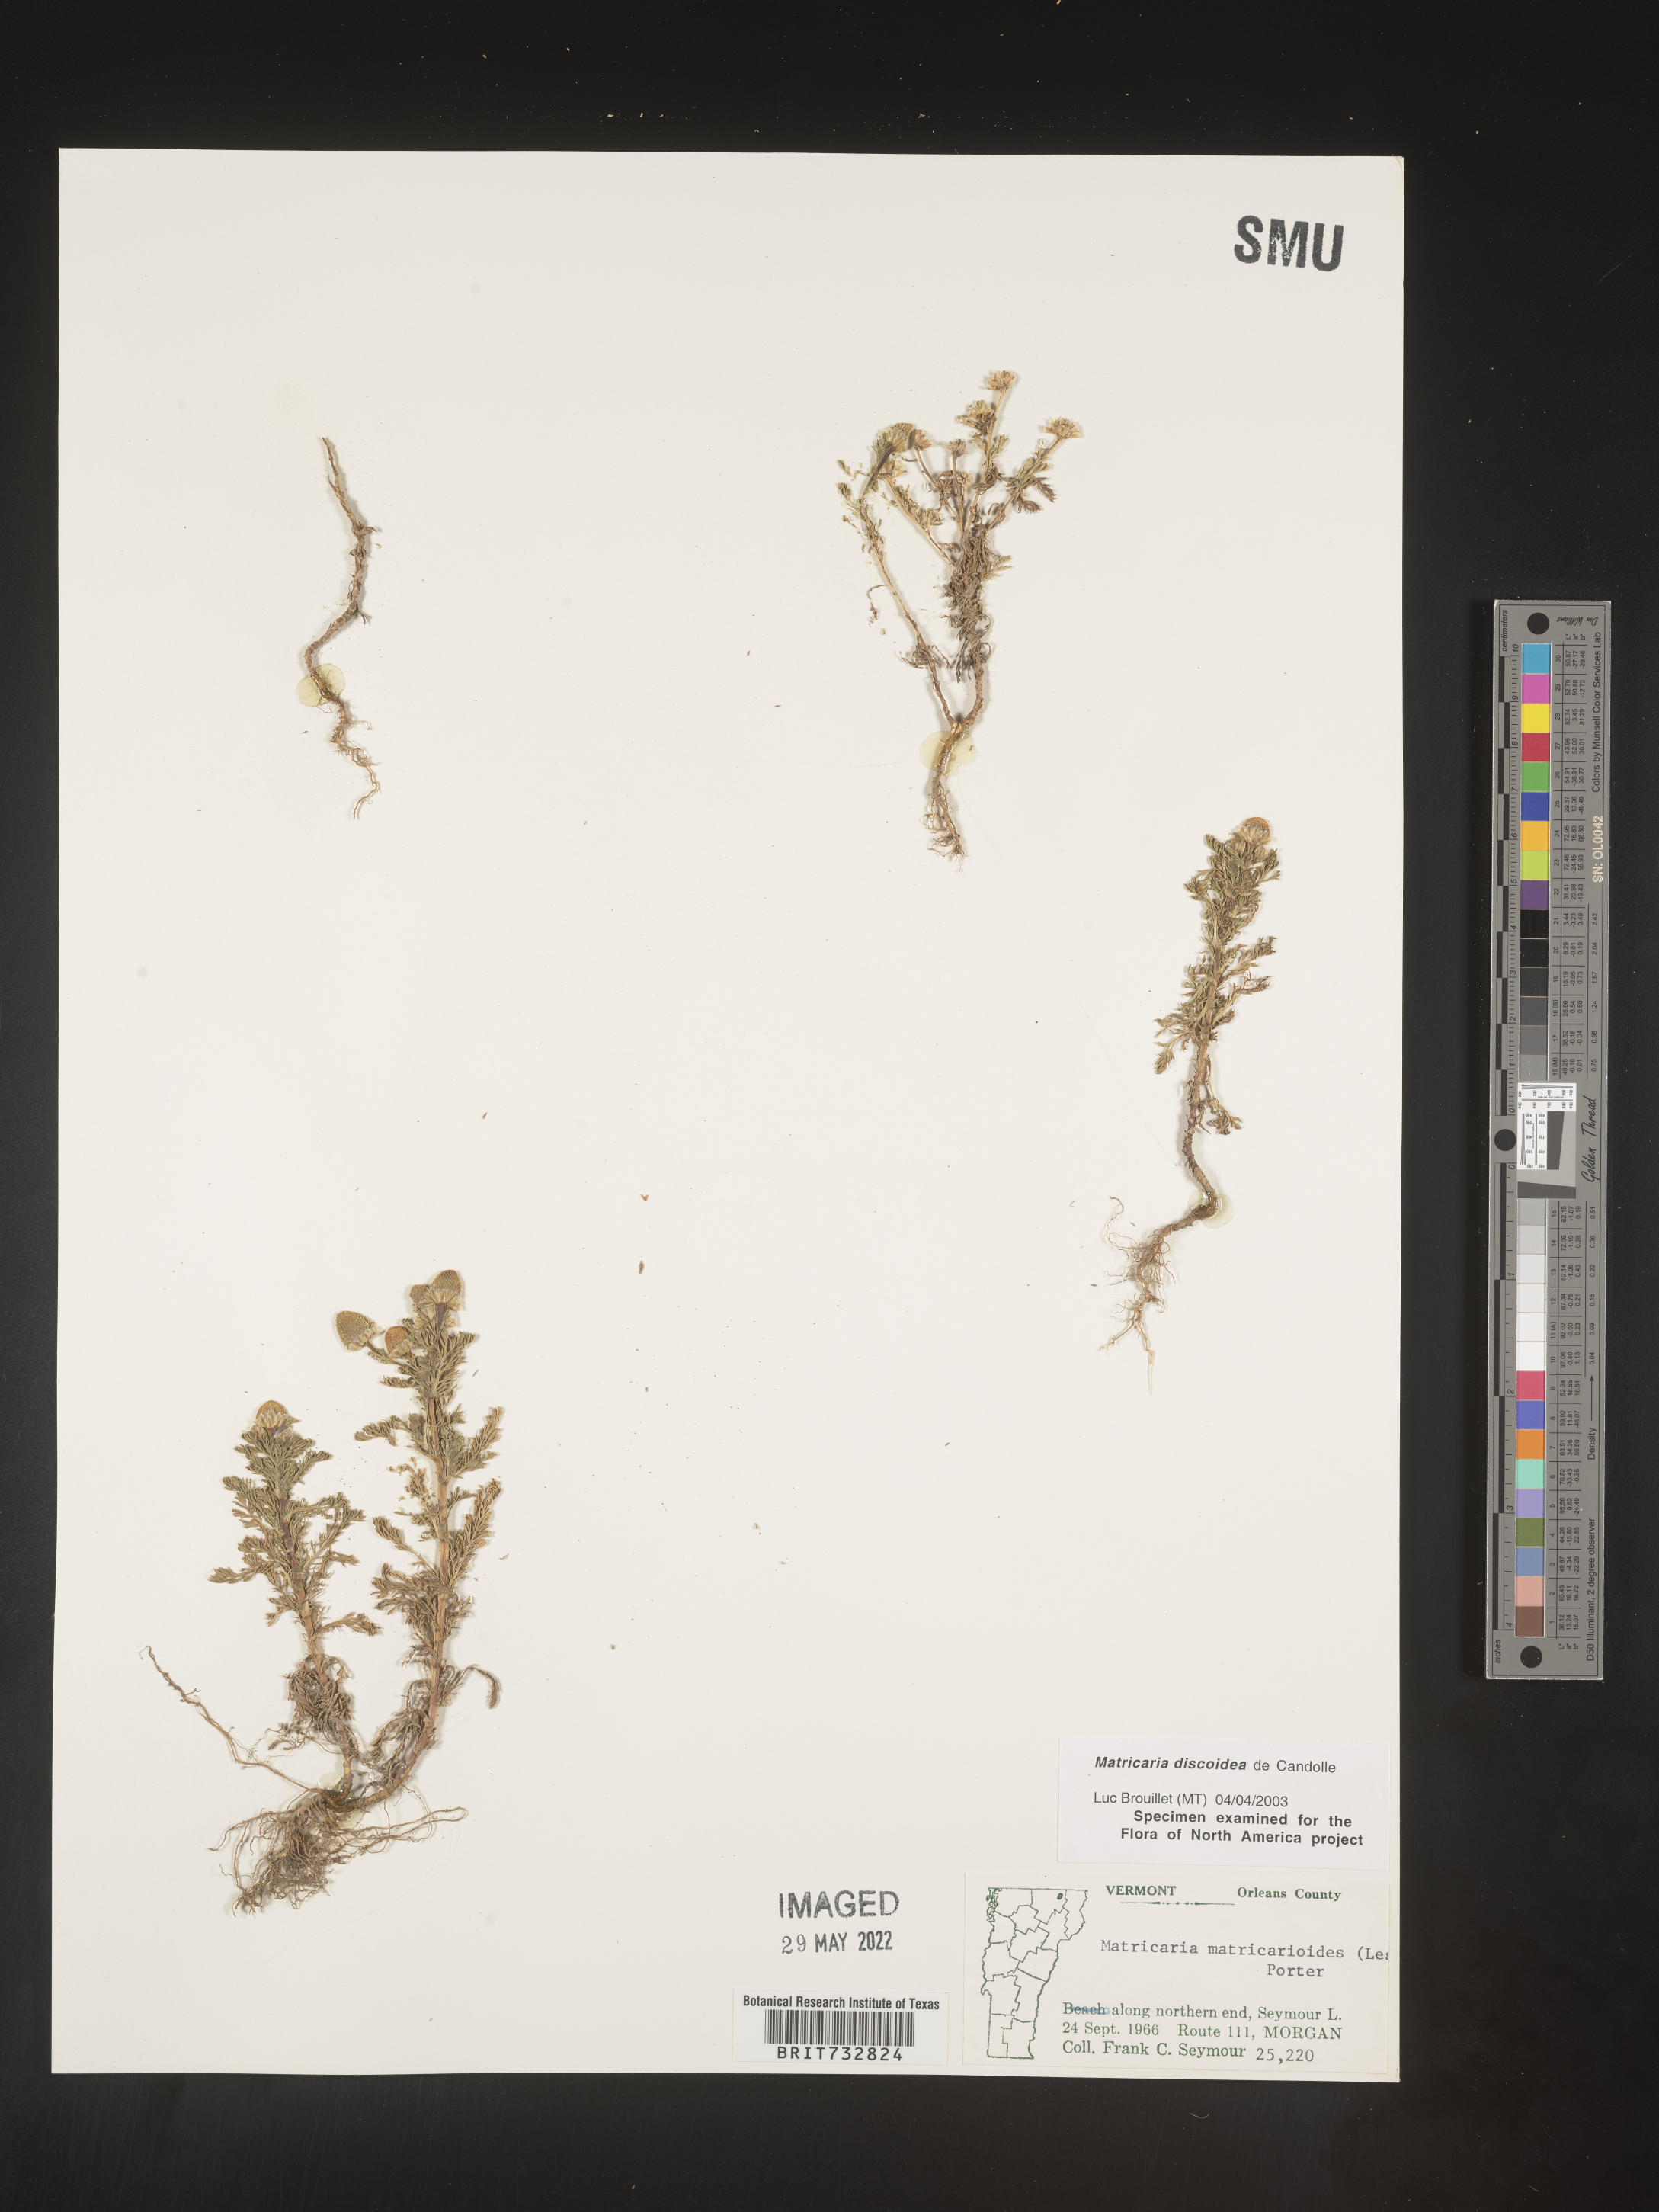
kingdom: Plantae
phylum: Tracheophyta
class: Magnoliopsida
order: Asterales
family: Asteraceae
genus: Matricaria
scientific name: Matricaria discoidea
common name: Disc mayweed
